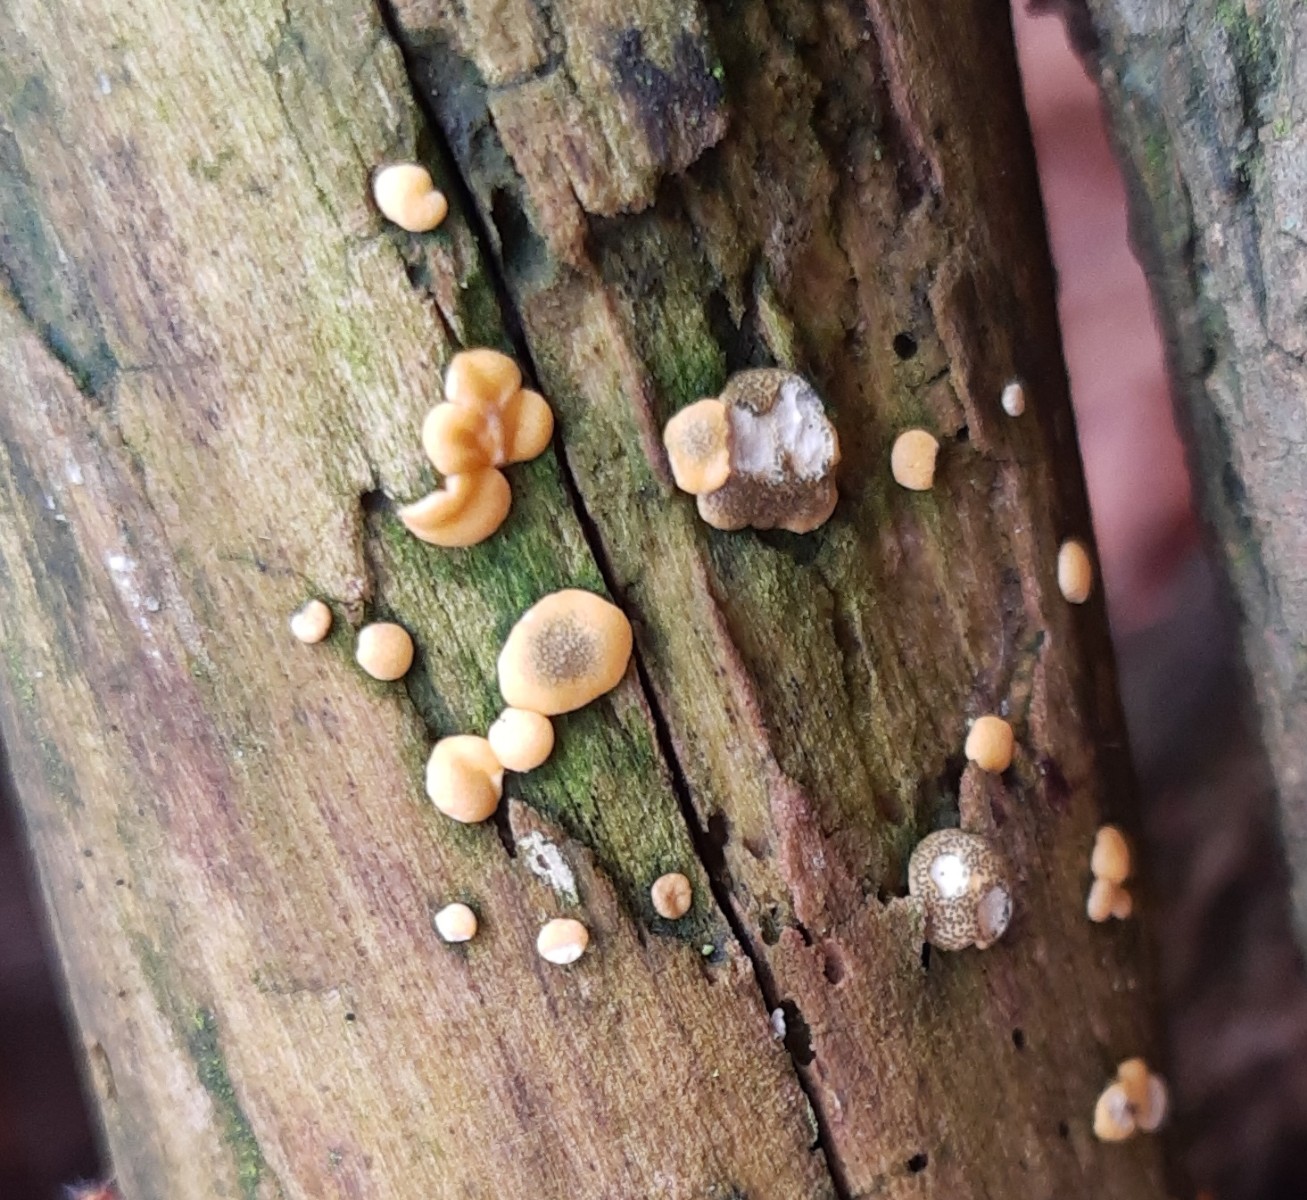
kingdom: Fungi
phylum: Ascomycota
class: Sordariomycetes
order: Hypocreales
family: Hypocreaceae
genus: Trichoderma
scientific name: Trichoderma aureoviride
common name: æggegul kødkerne
